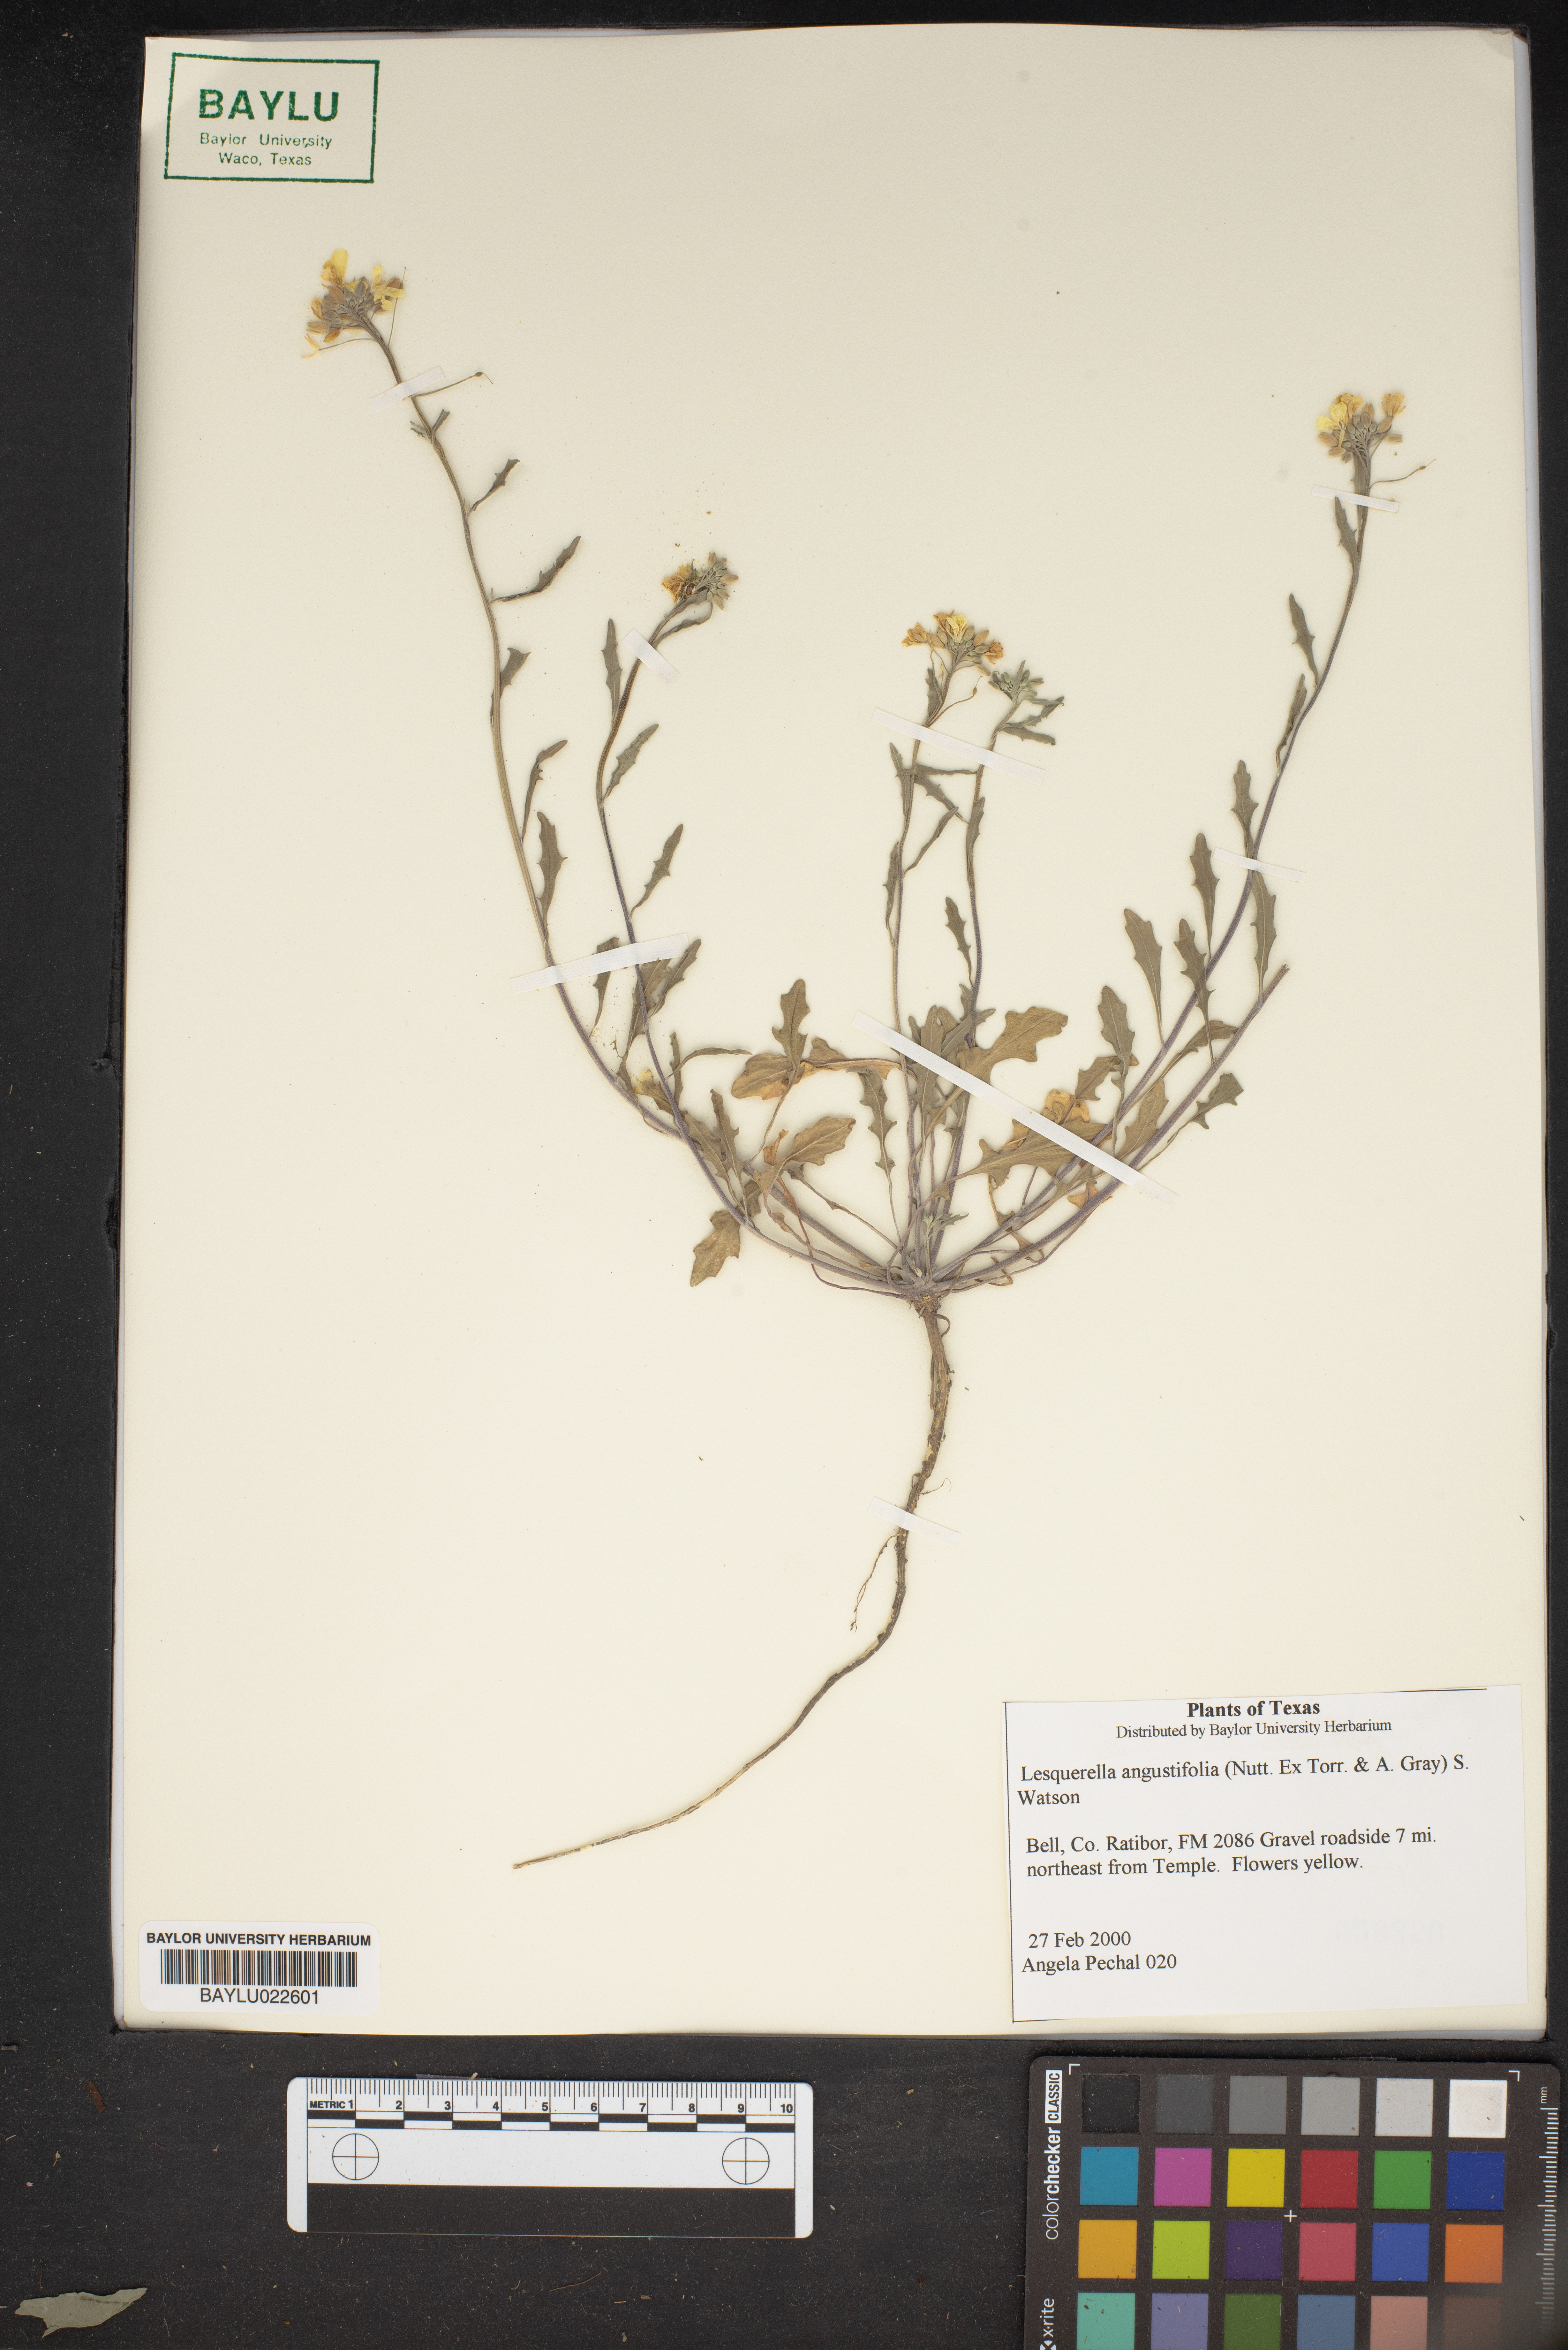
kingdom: Plantae
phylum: Tracheophyta
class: Magnoliopsida
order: Brassicales
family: Brassicaceae
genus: Physaria
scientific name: Physaria angustifolia
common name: Threadleaf bladderpod
